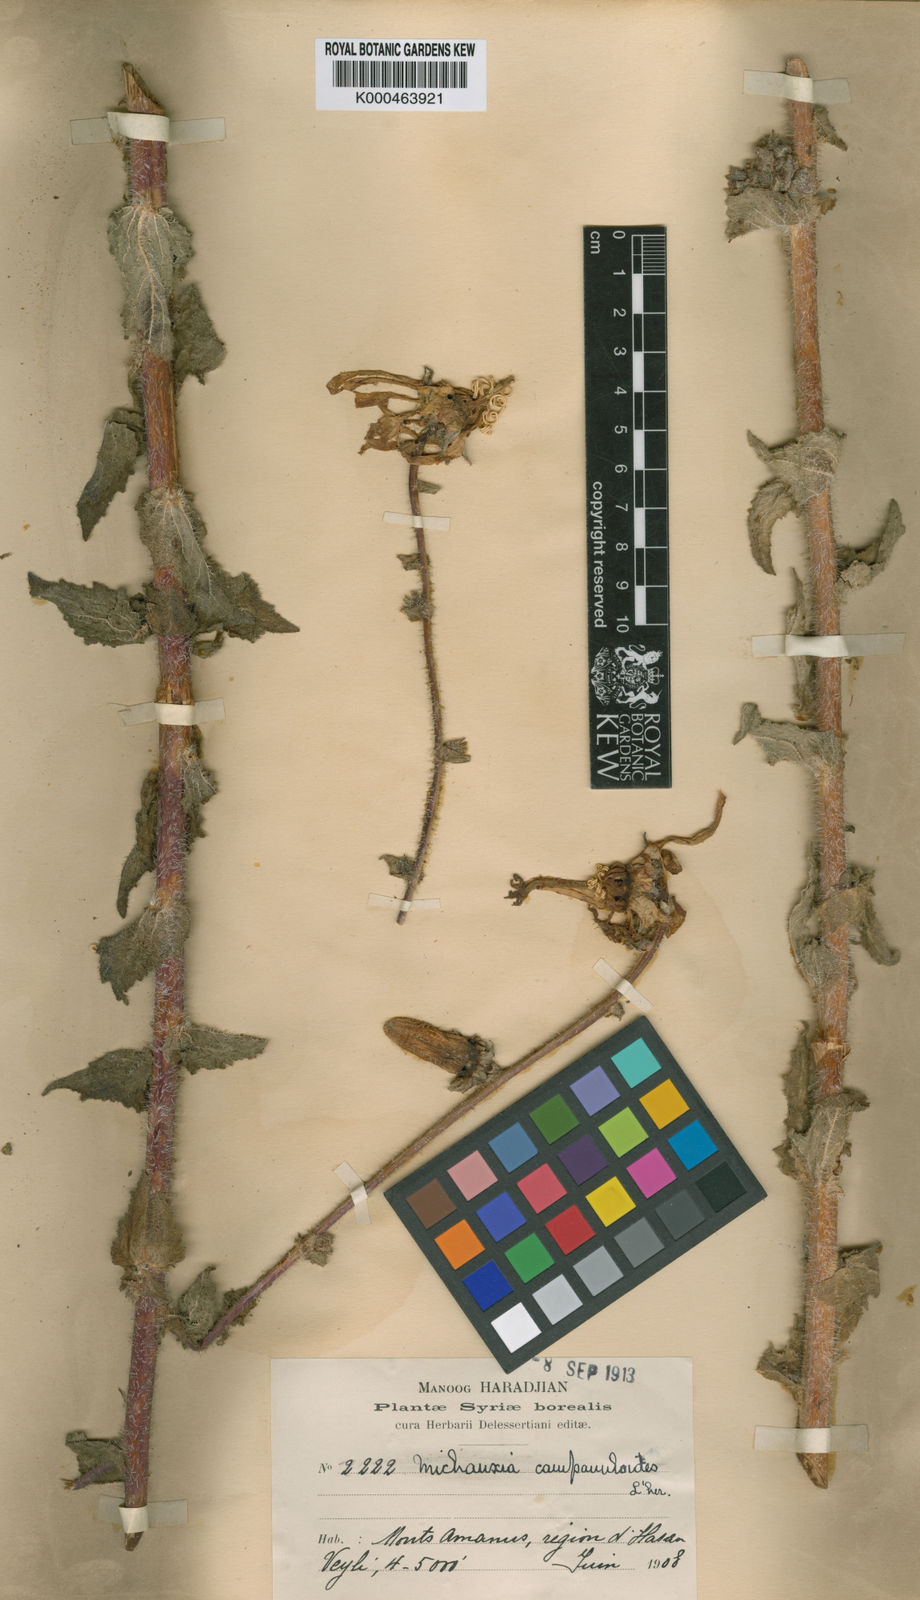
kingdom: Plantae
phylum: Tracheophyta
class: Magnoliopsida
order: Asterales
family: Campanulaceae
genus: Michauxia
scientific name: Michauxia
